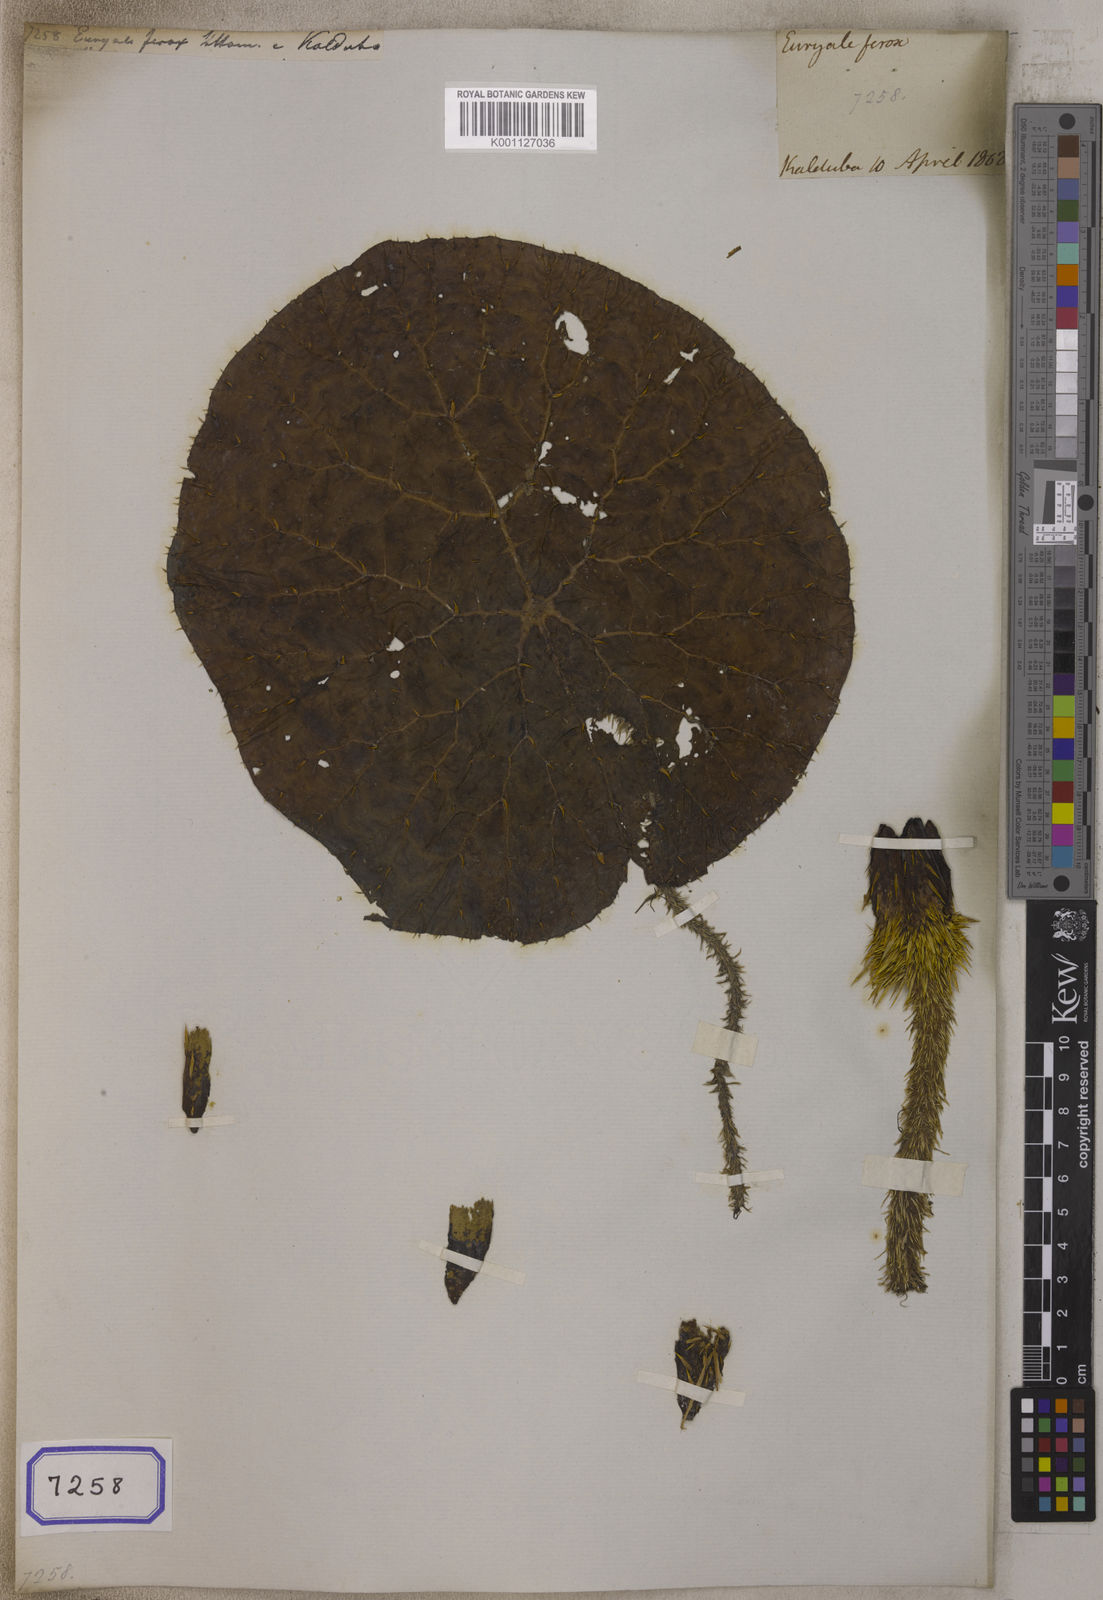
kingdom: Plantae
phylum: Tracheophyta
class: Magnoliopsida
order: Nymphaeales
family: Nymphaeaceae
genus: Euryale
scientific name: Euryale ferox
